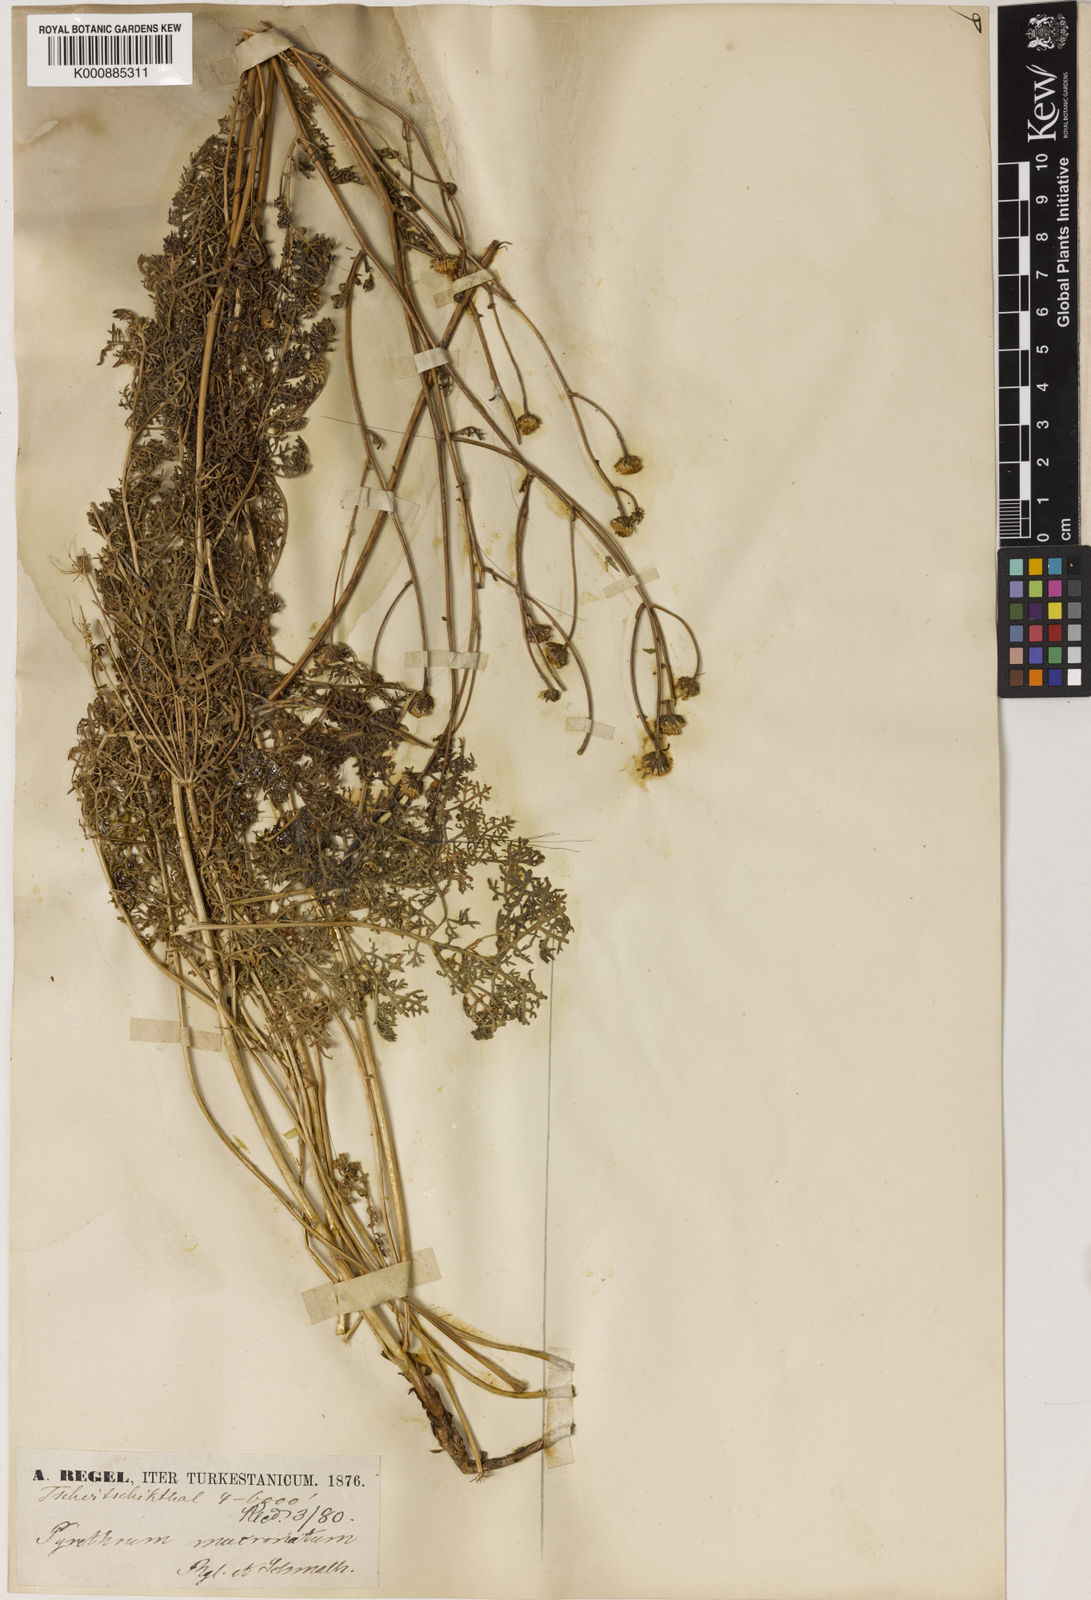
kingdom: Plantae
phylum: Tracheophyta
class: Magnoliopsida
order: Asterales
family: Asteraceae
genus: Tanacetopsis
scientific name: Tanacetopsis setacea
